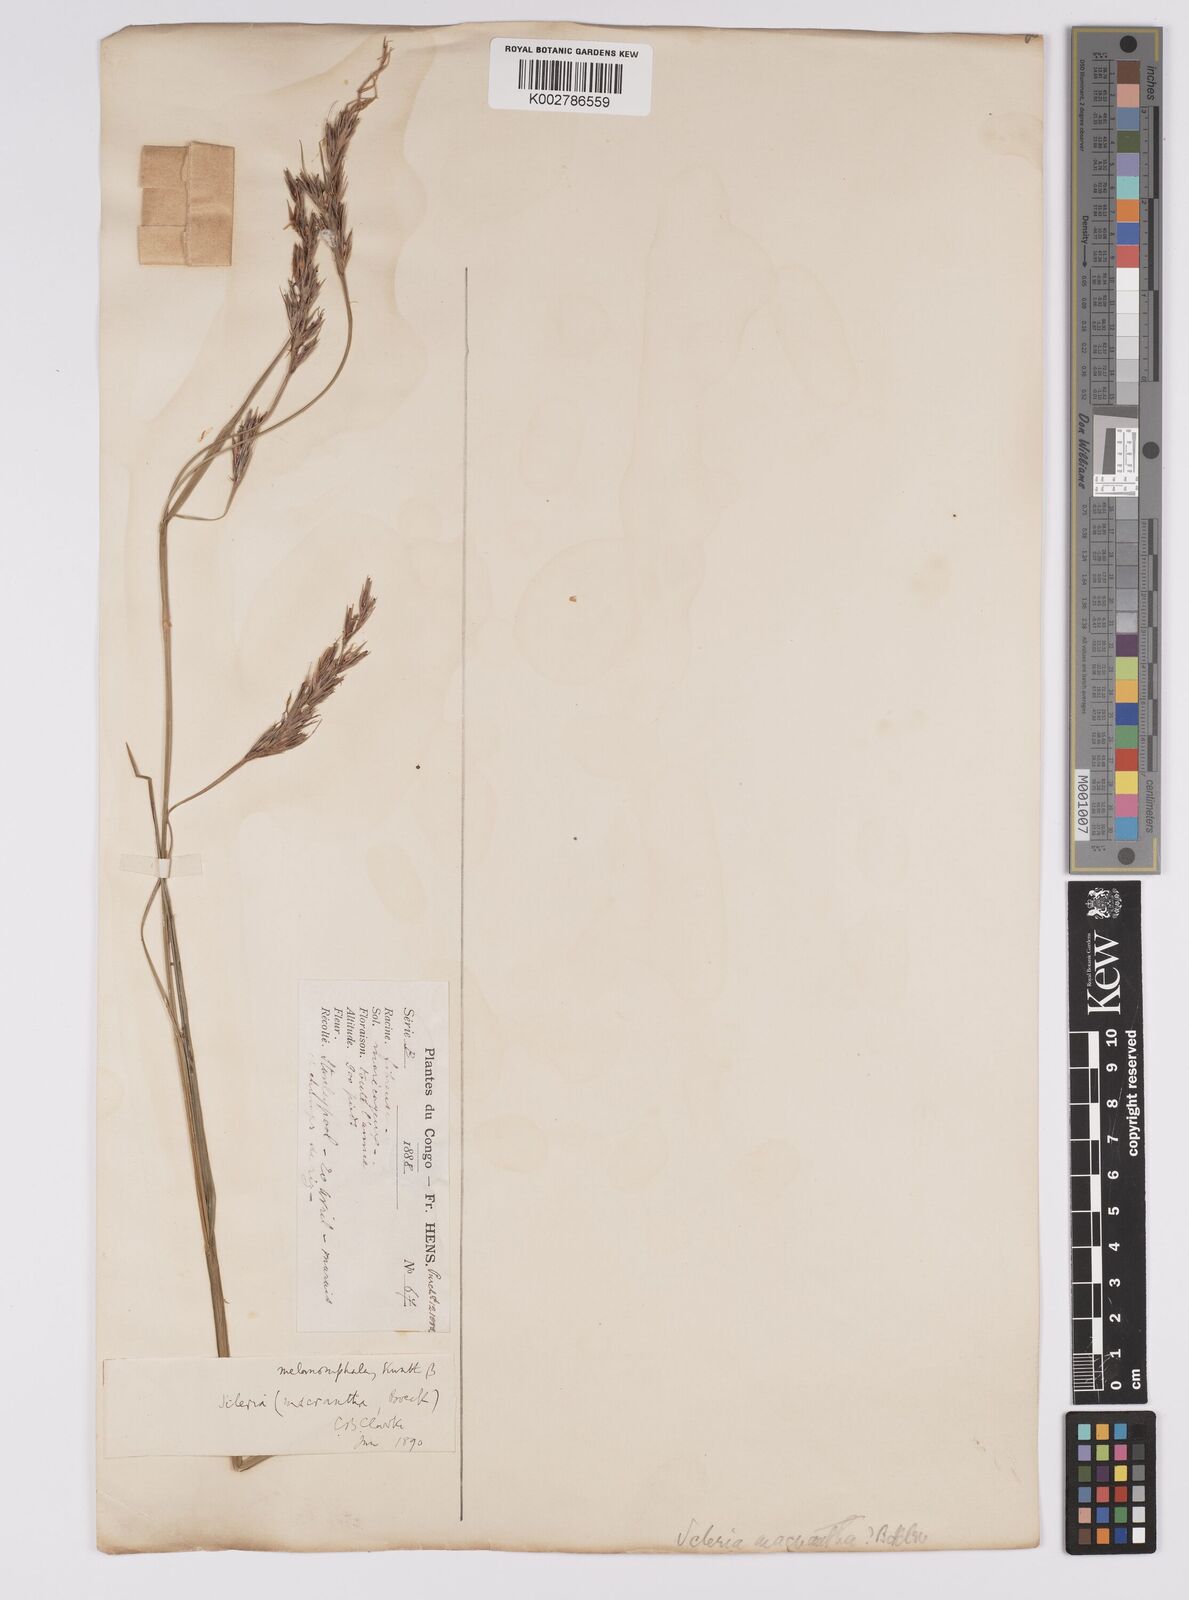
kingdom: Plantae
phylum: Tracheophyta
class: Liliopsida
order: Poales
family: Cyperaceae
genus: Scleria
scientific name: Scleria melanomphala
